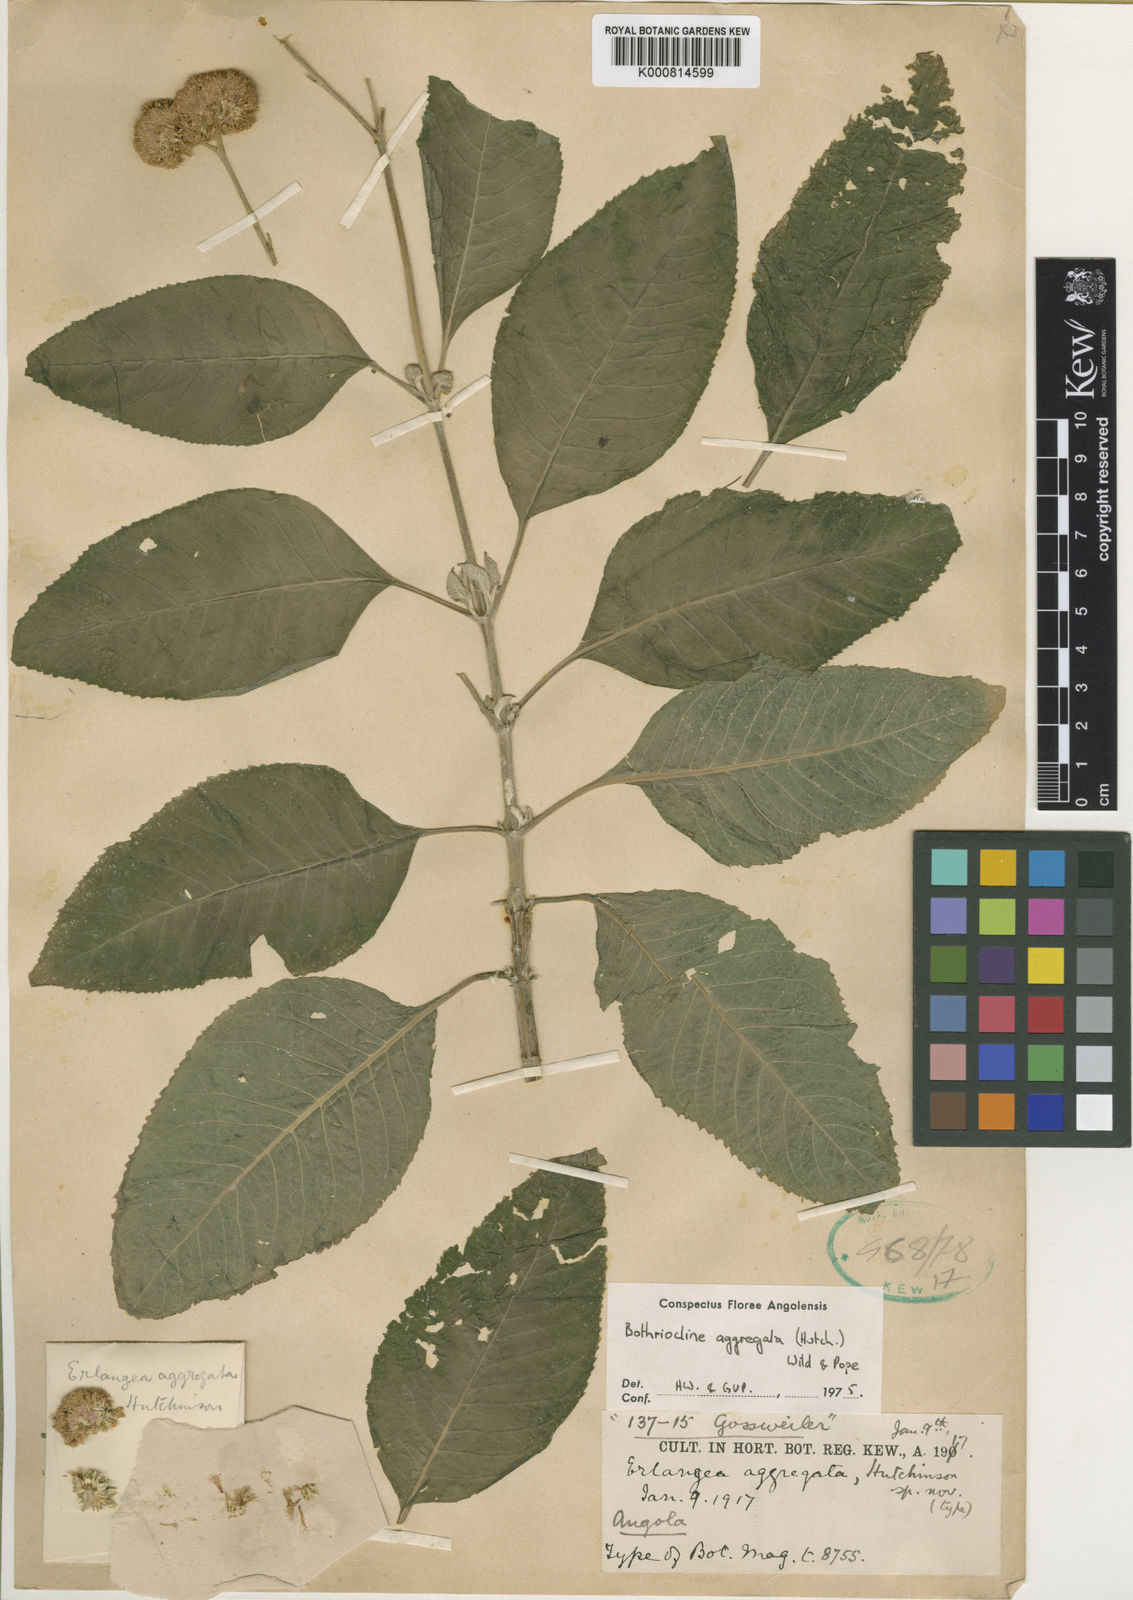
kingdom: Plantae
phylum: Tracheophyta
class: Magnoliopsida
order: Asterales
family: Asteraceae
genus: Bothriocline
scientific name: Bothriocline longipes
